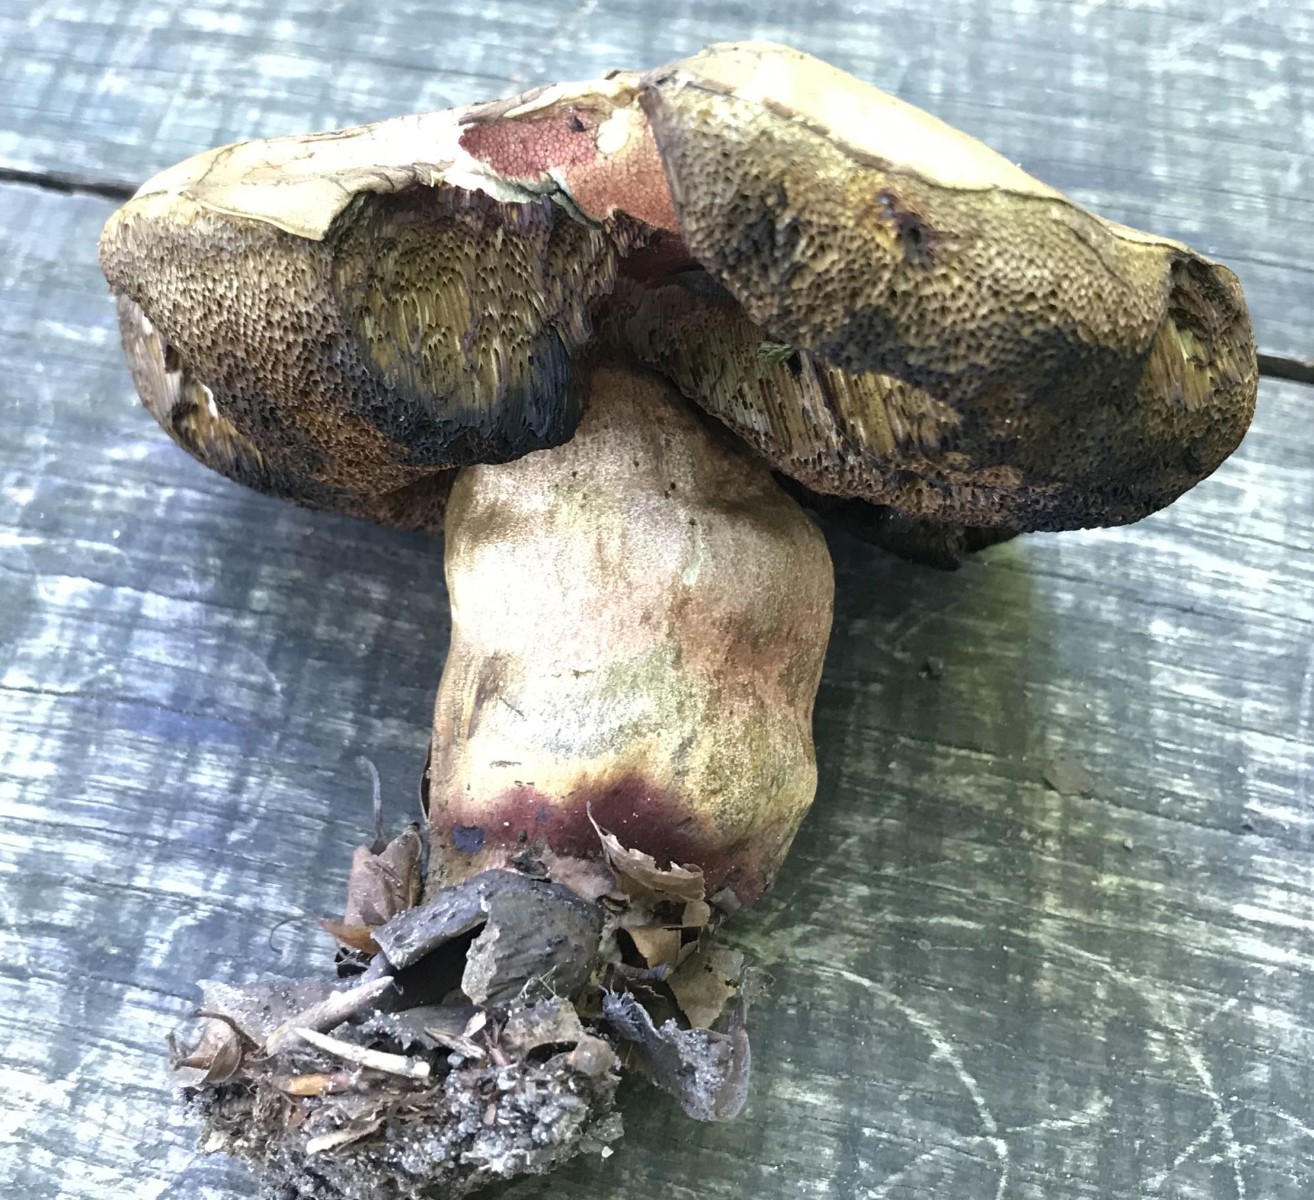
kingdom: Fungi
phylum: Basidiomycota
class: Agaricomycetes
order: Boletales
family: Boletaceae
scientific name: Boletaceae
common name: rørhatfamilien
